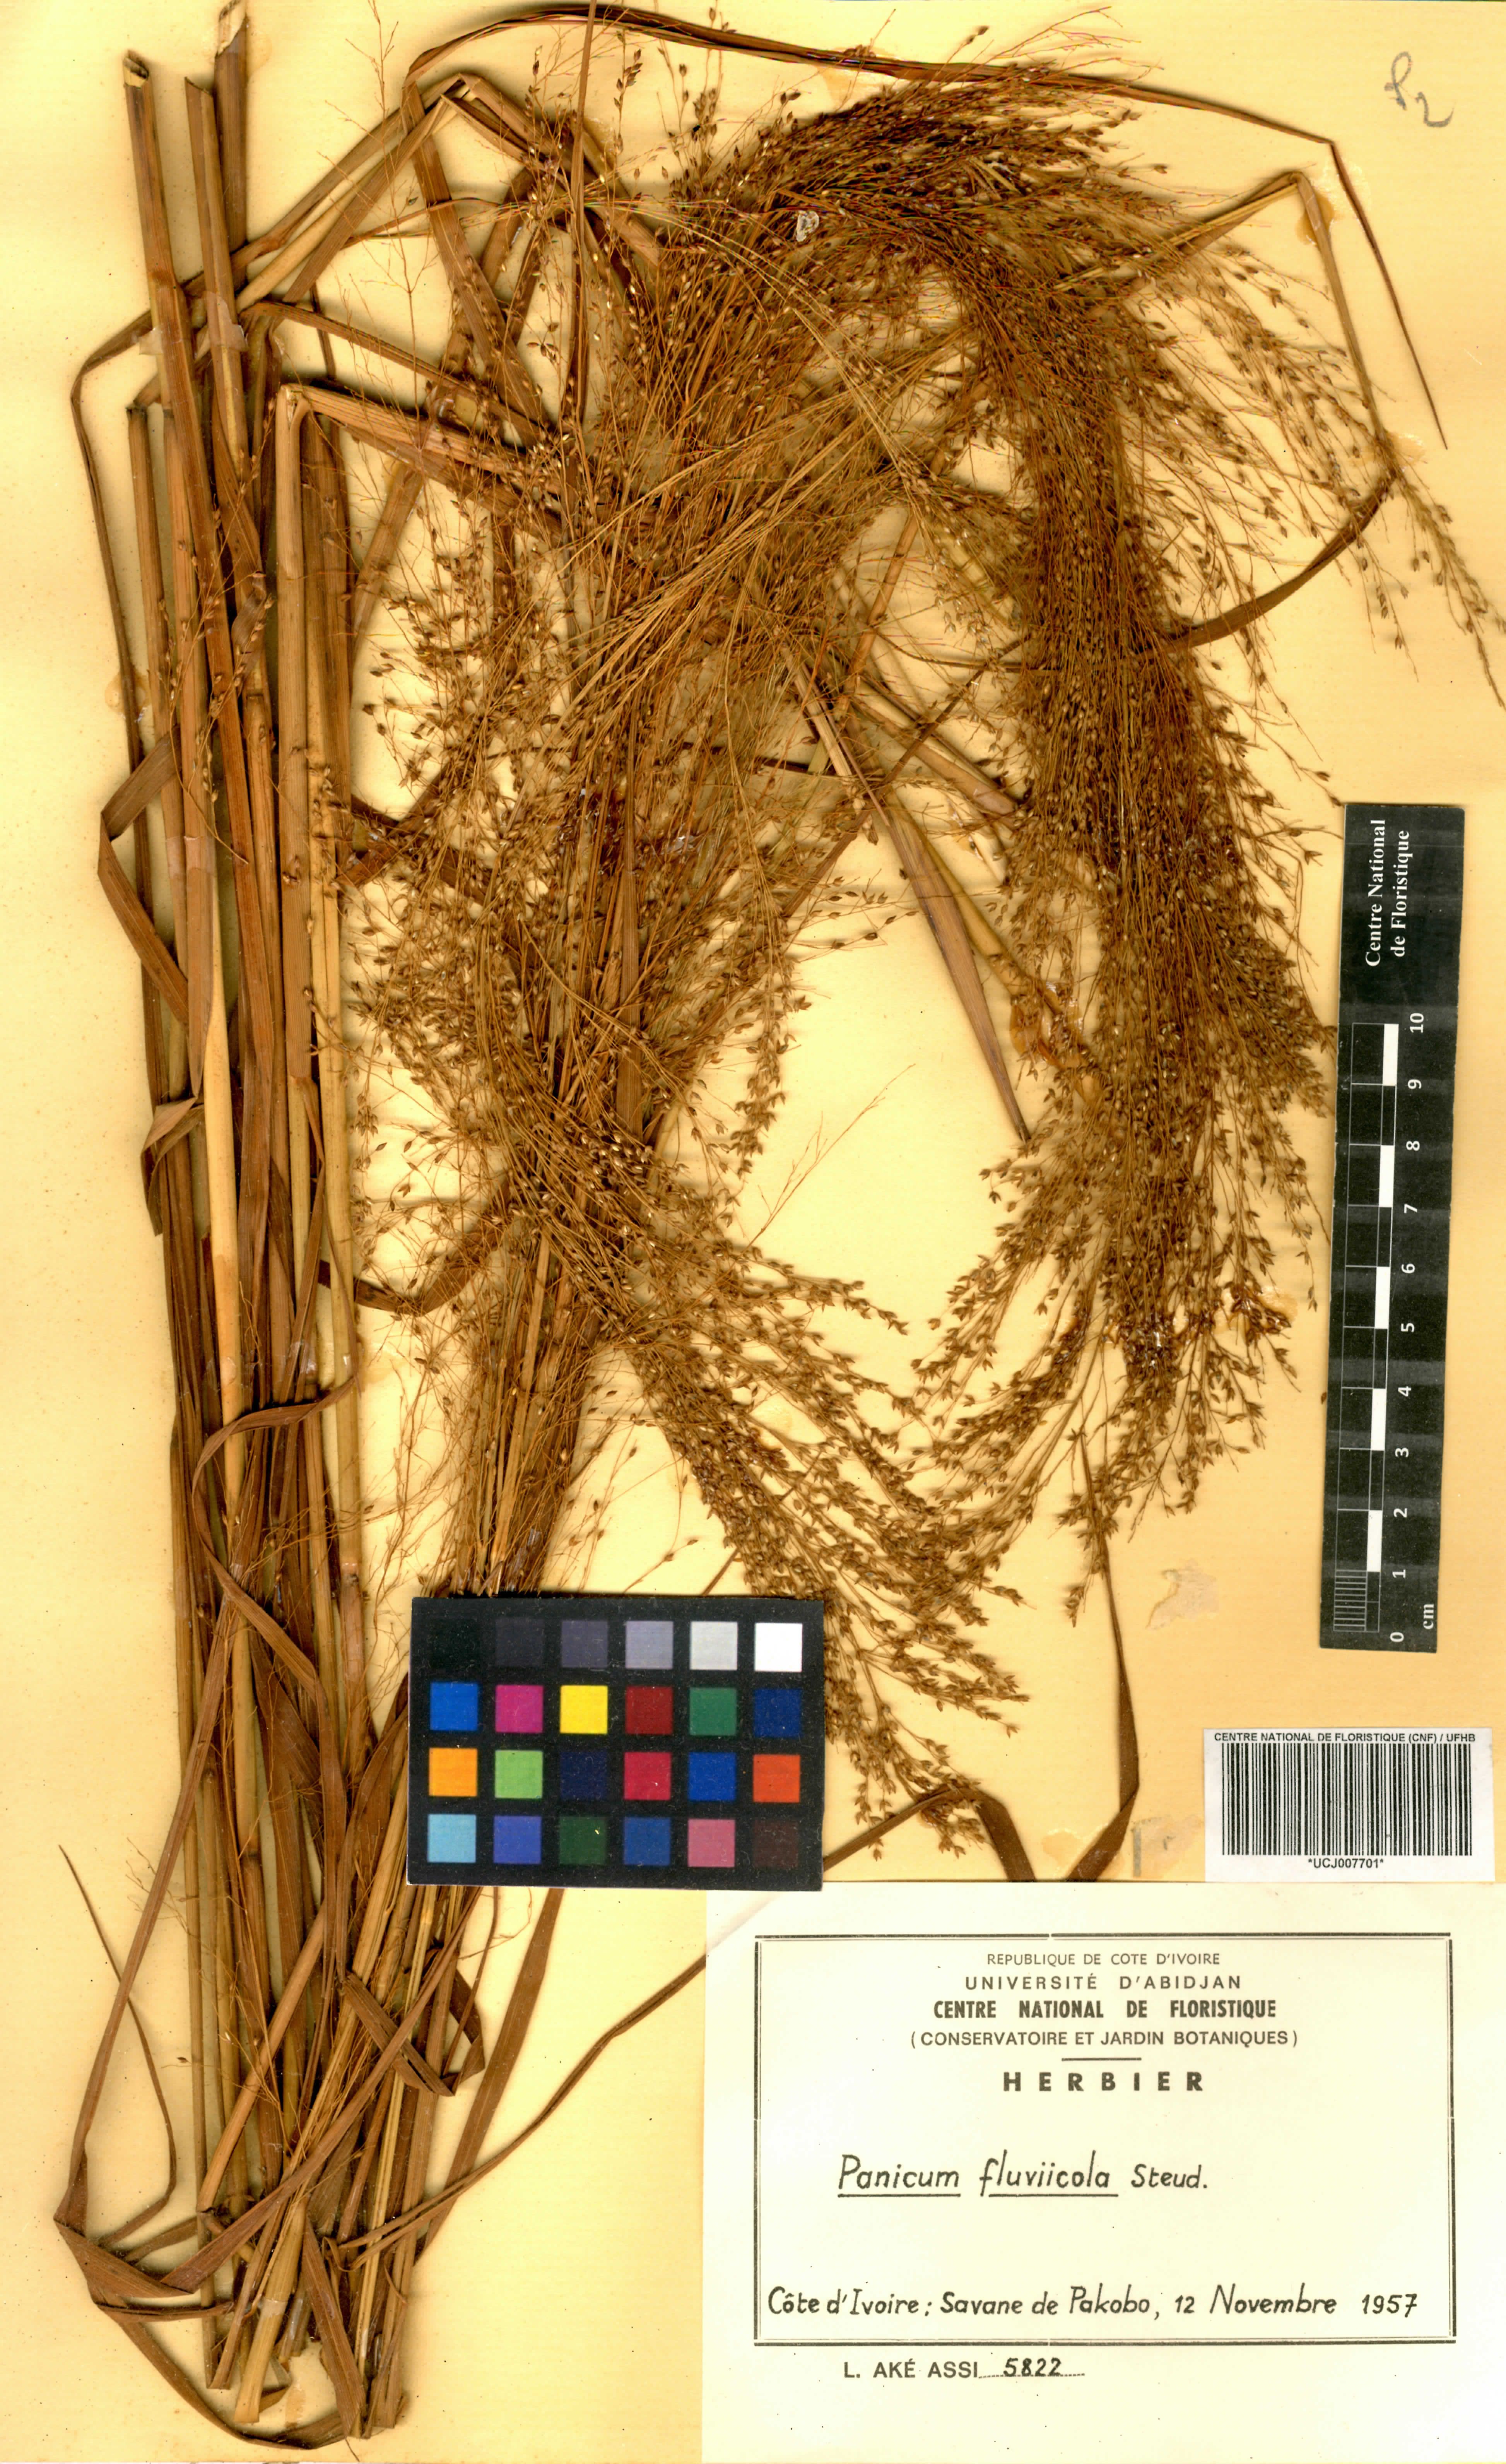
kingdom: Plantae
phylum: Tracheophyta
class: Liliopsida
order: Poales
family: Poaceae
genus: Panicum
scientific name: Panicum fluviicola
